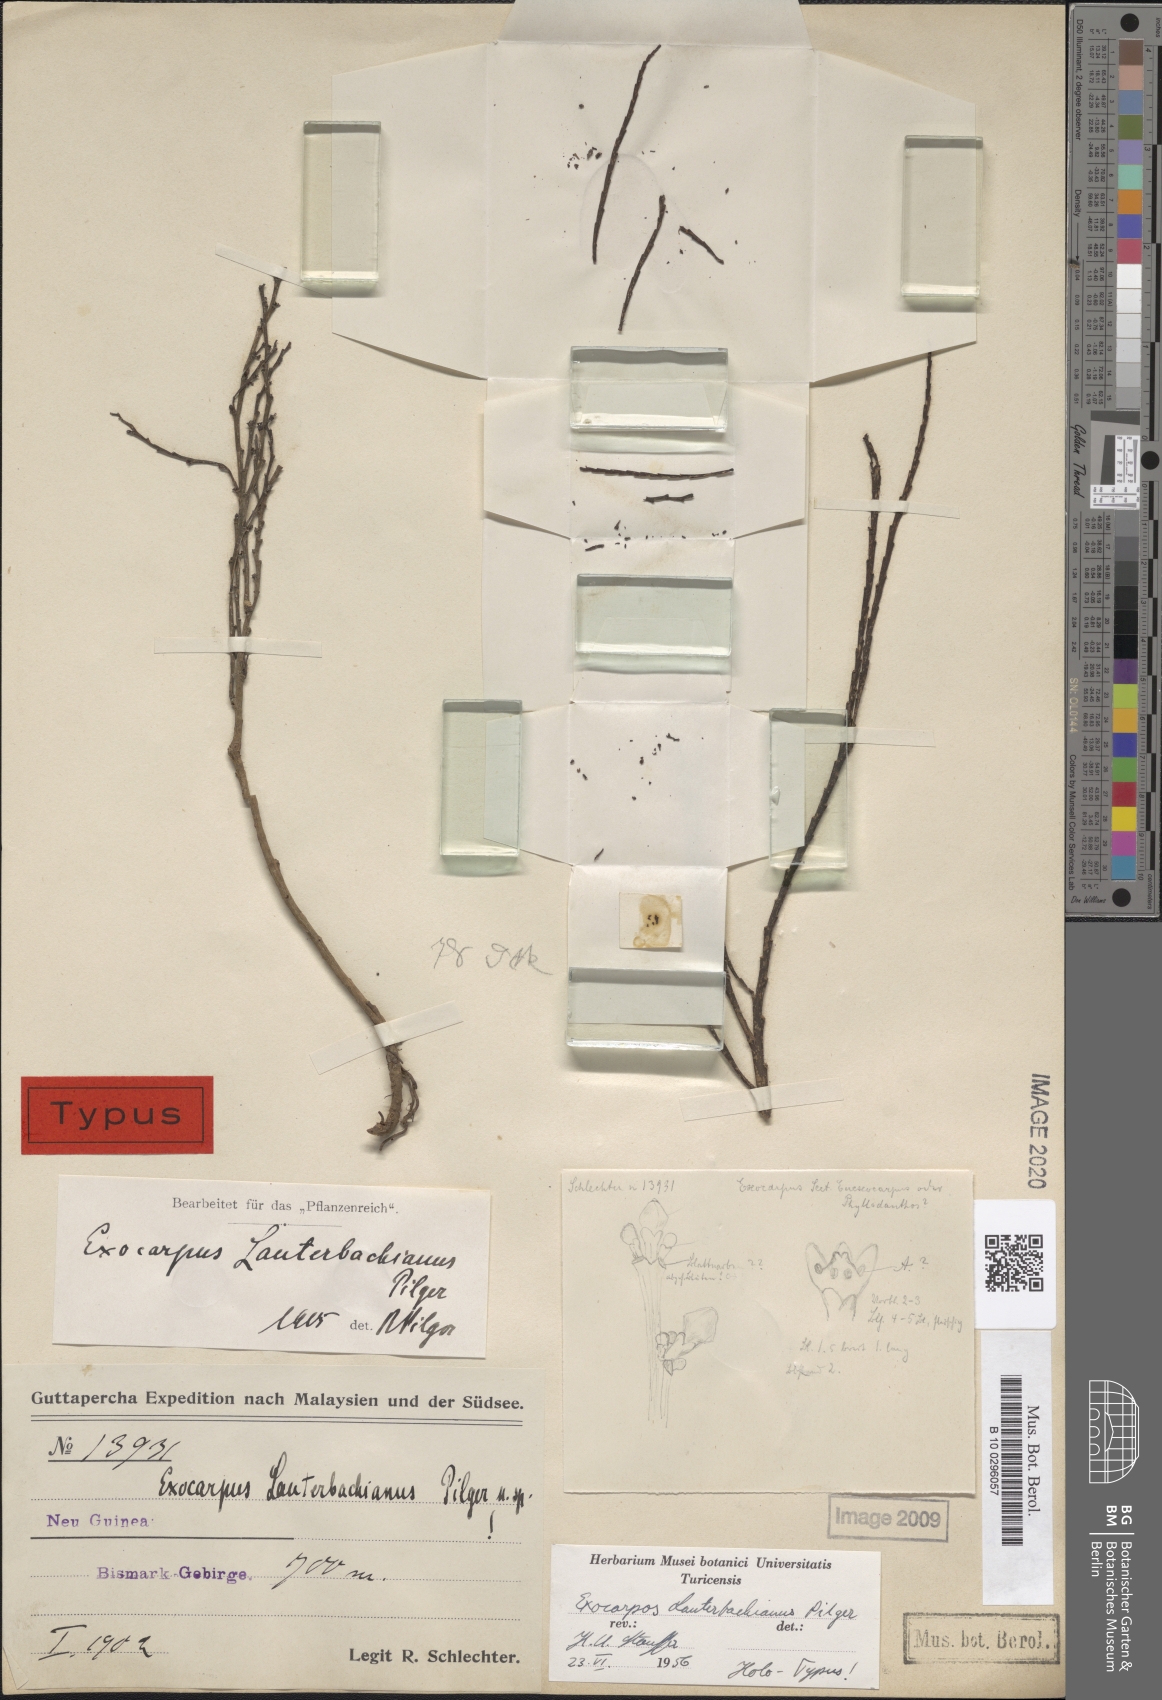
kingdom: Plantae
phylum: Tracheophyta
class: Magnoliopsida
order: Santalales
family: Santalaceae
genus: Exocarpos
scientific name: Exocarpos lauterbachianus
